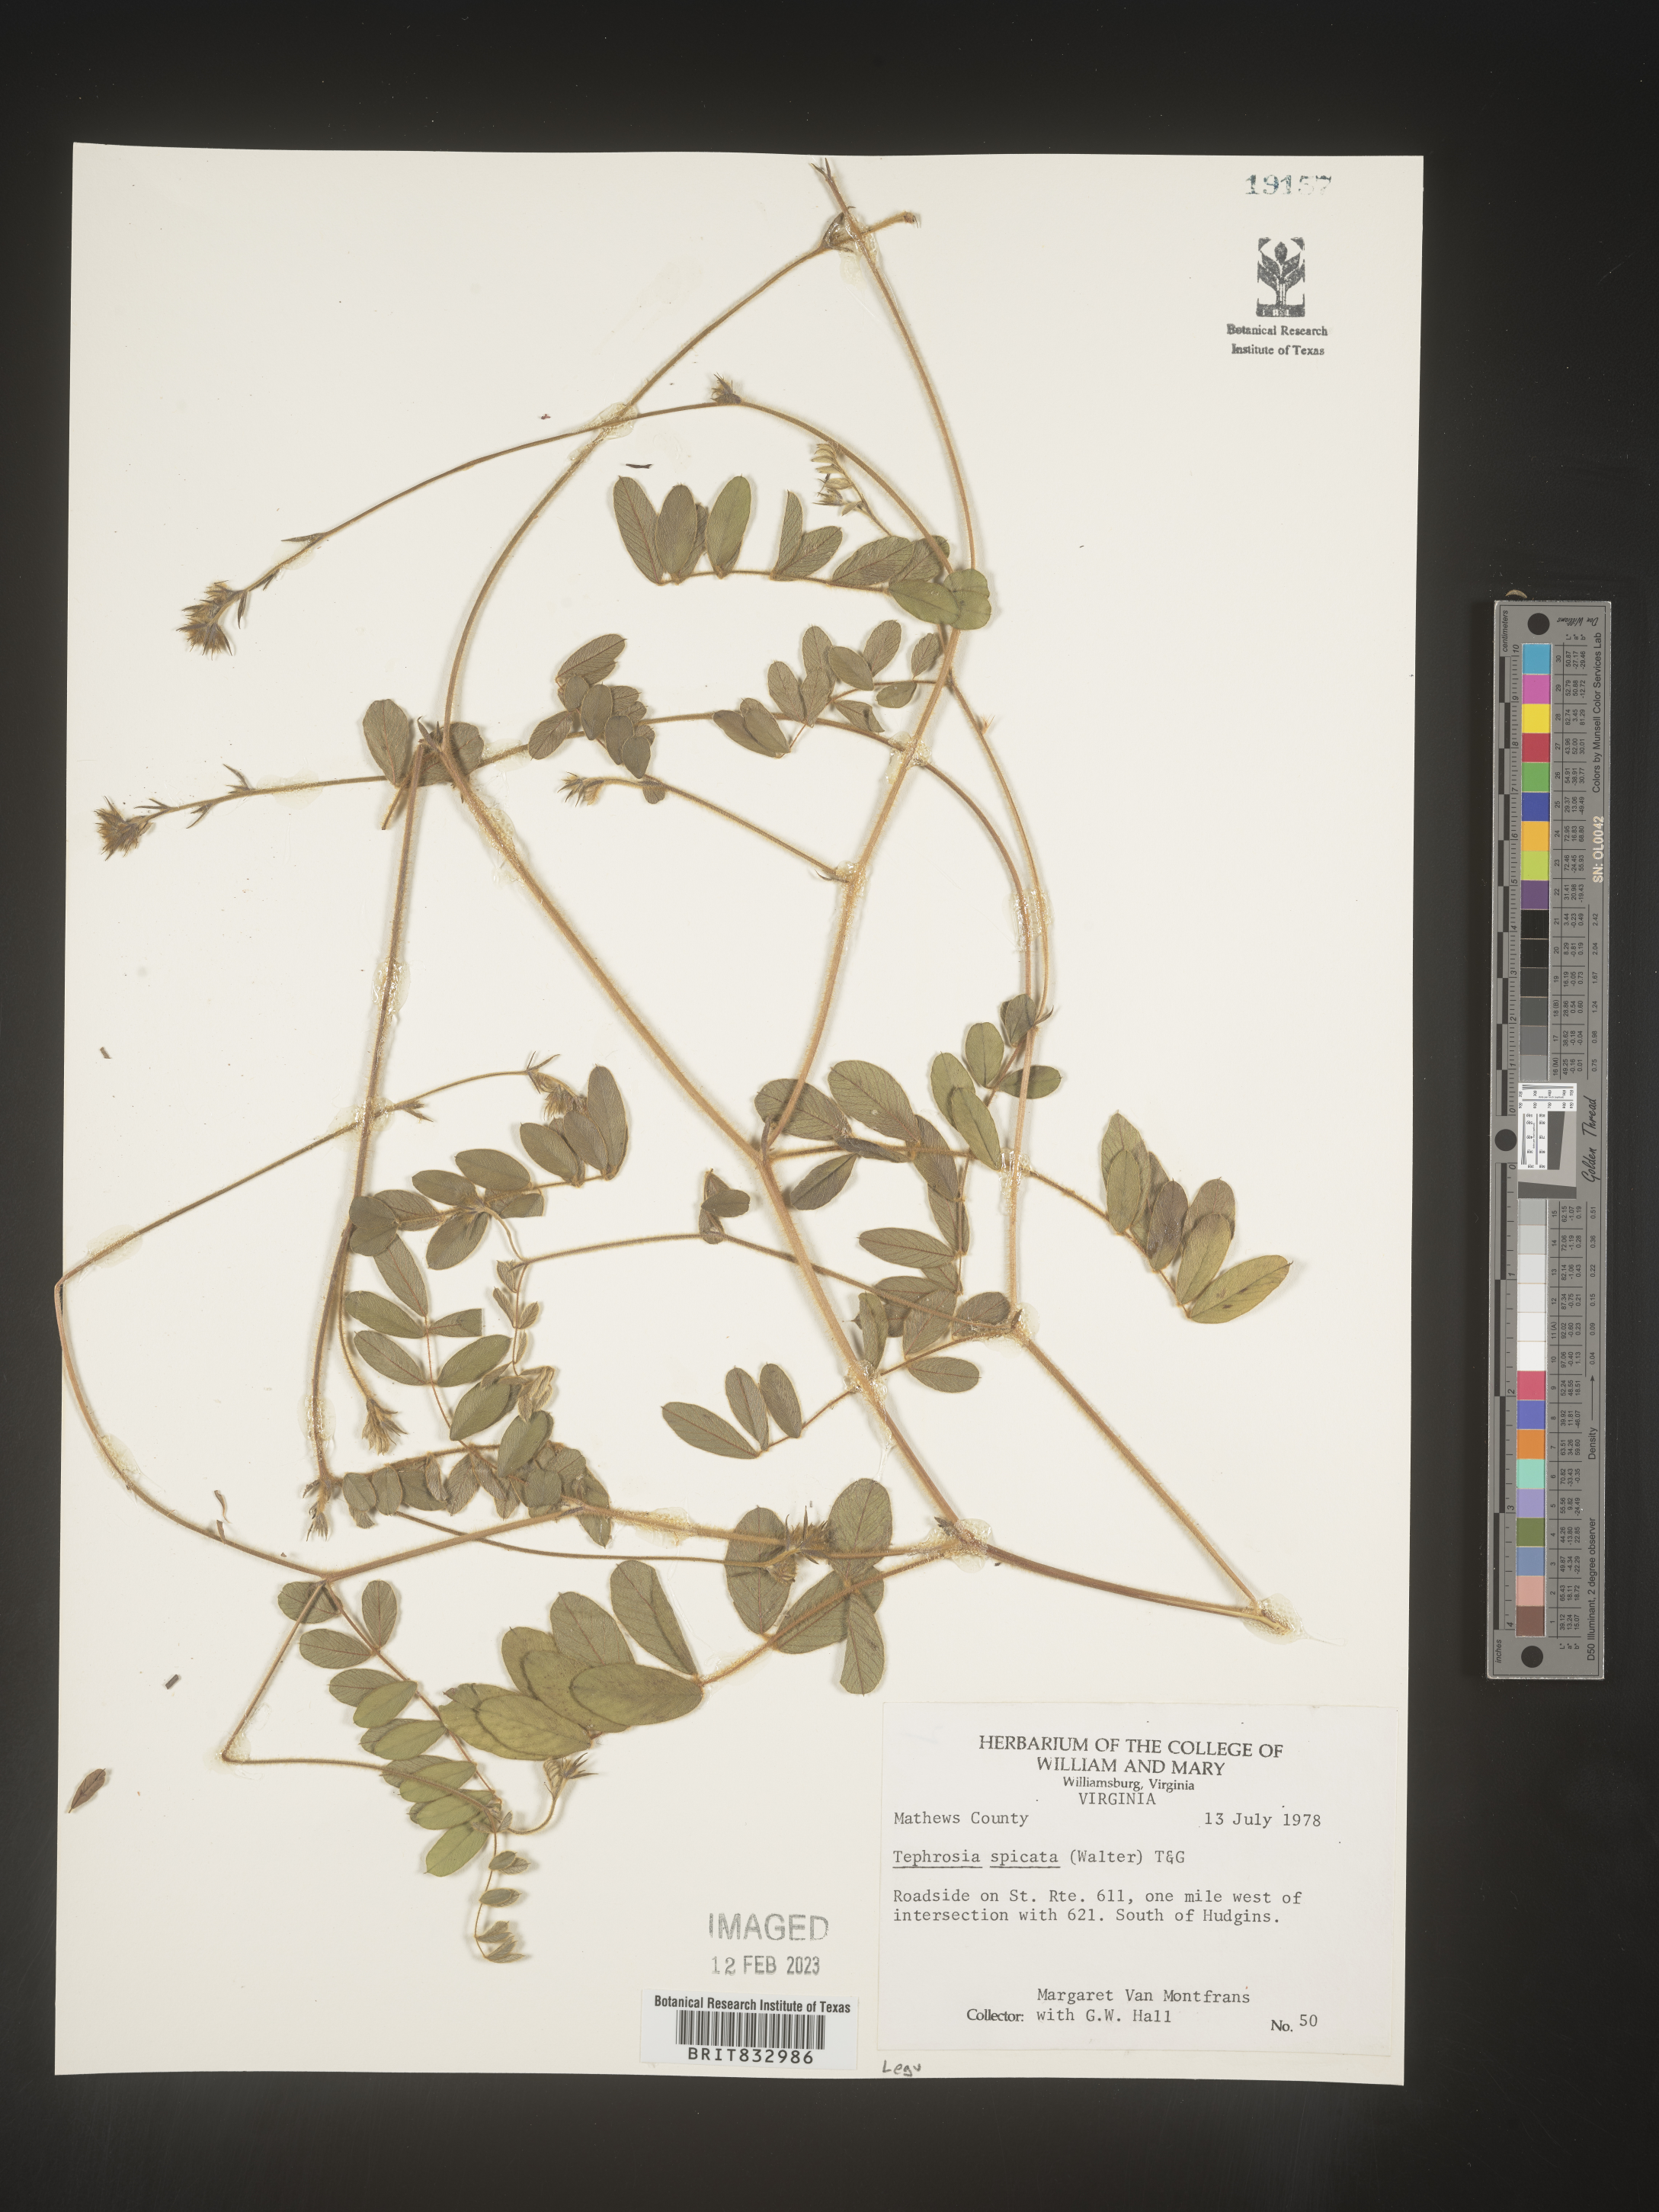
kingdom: Plantae
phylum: Tracheophyta
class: Magnoliopsida
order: Fabales
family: Fabaceae
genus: Tephrosia
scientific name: Tephrosia spicata
